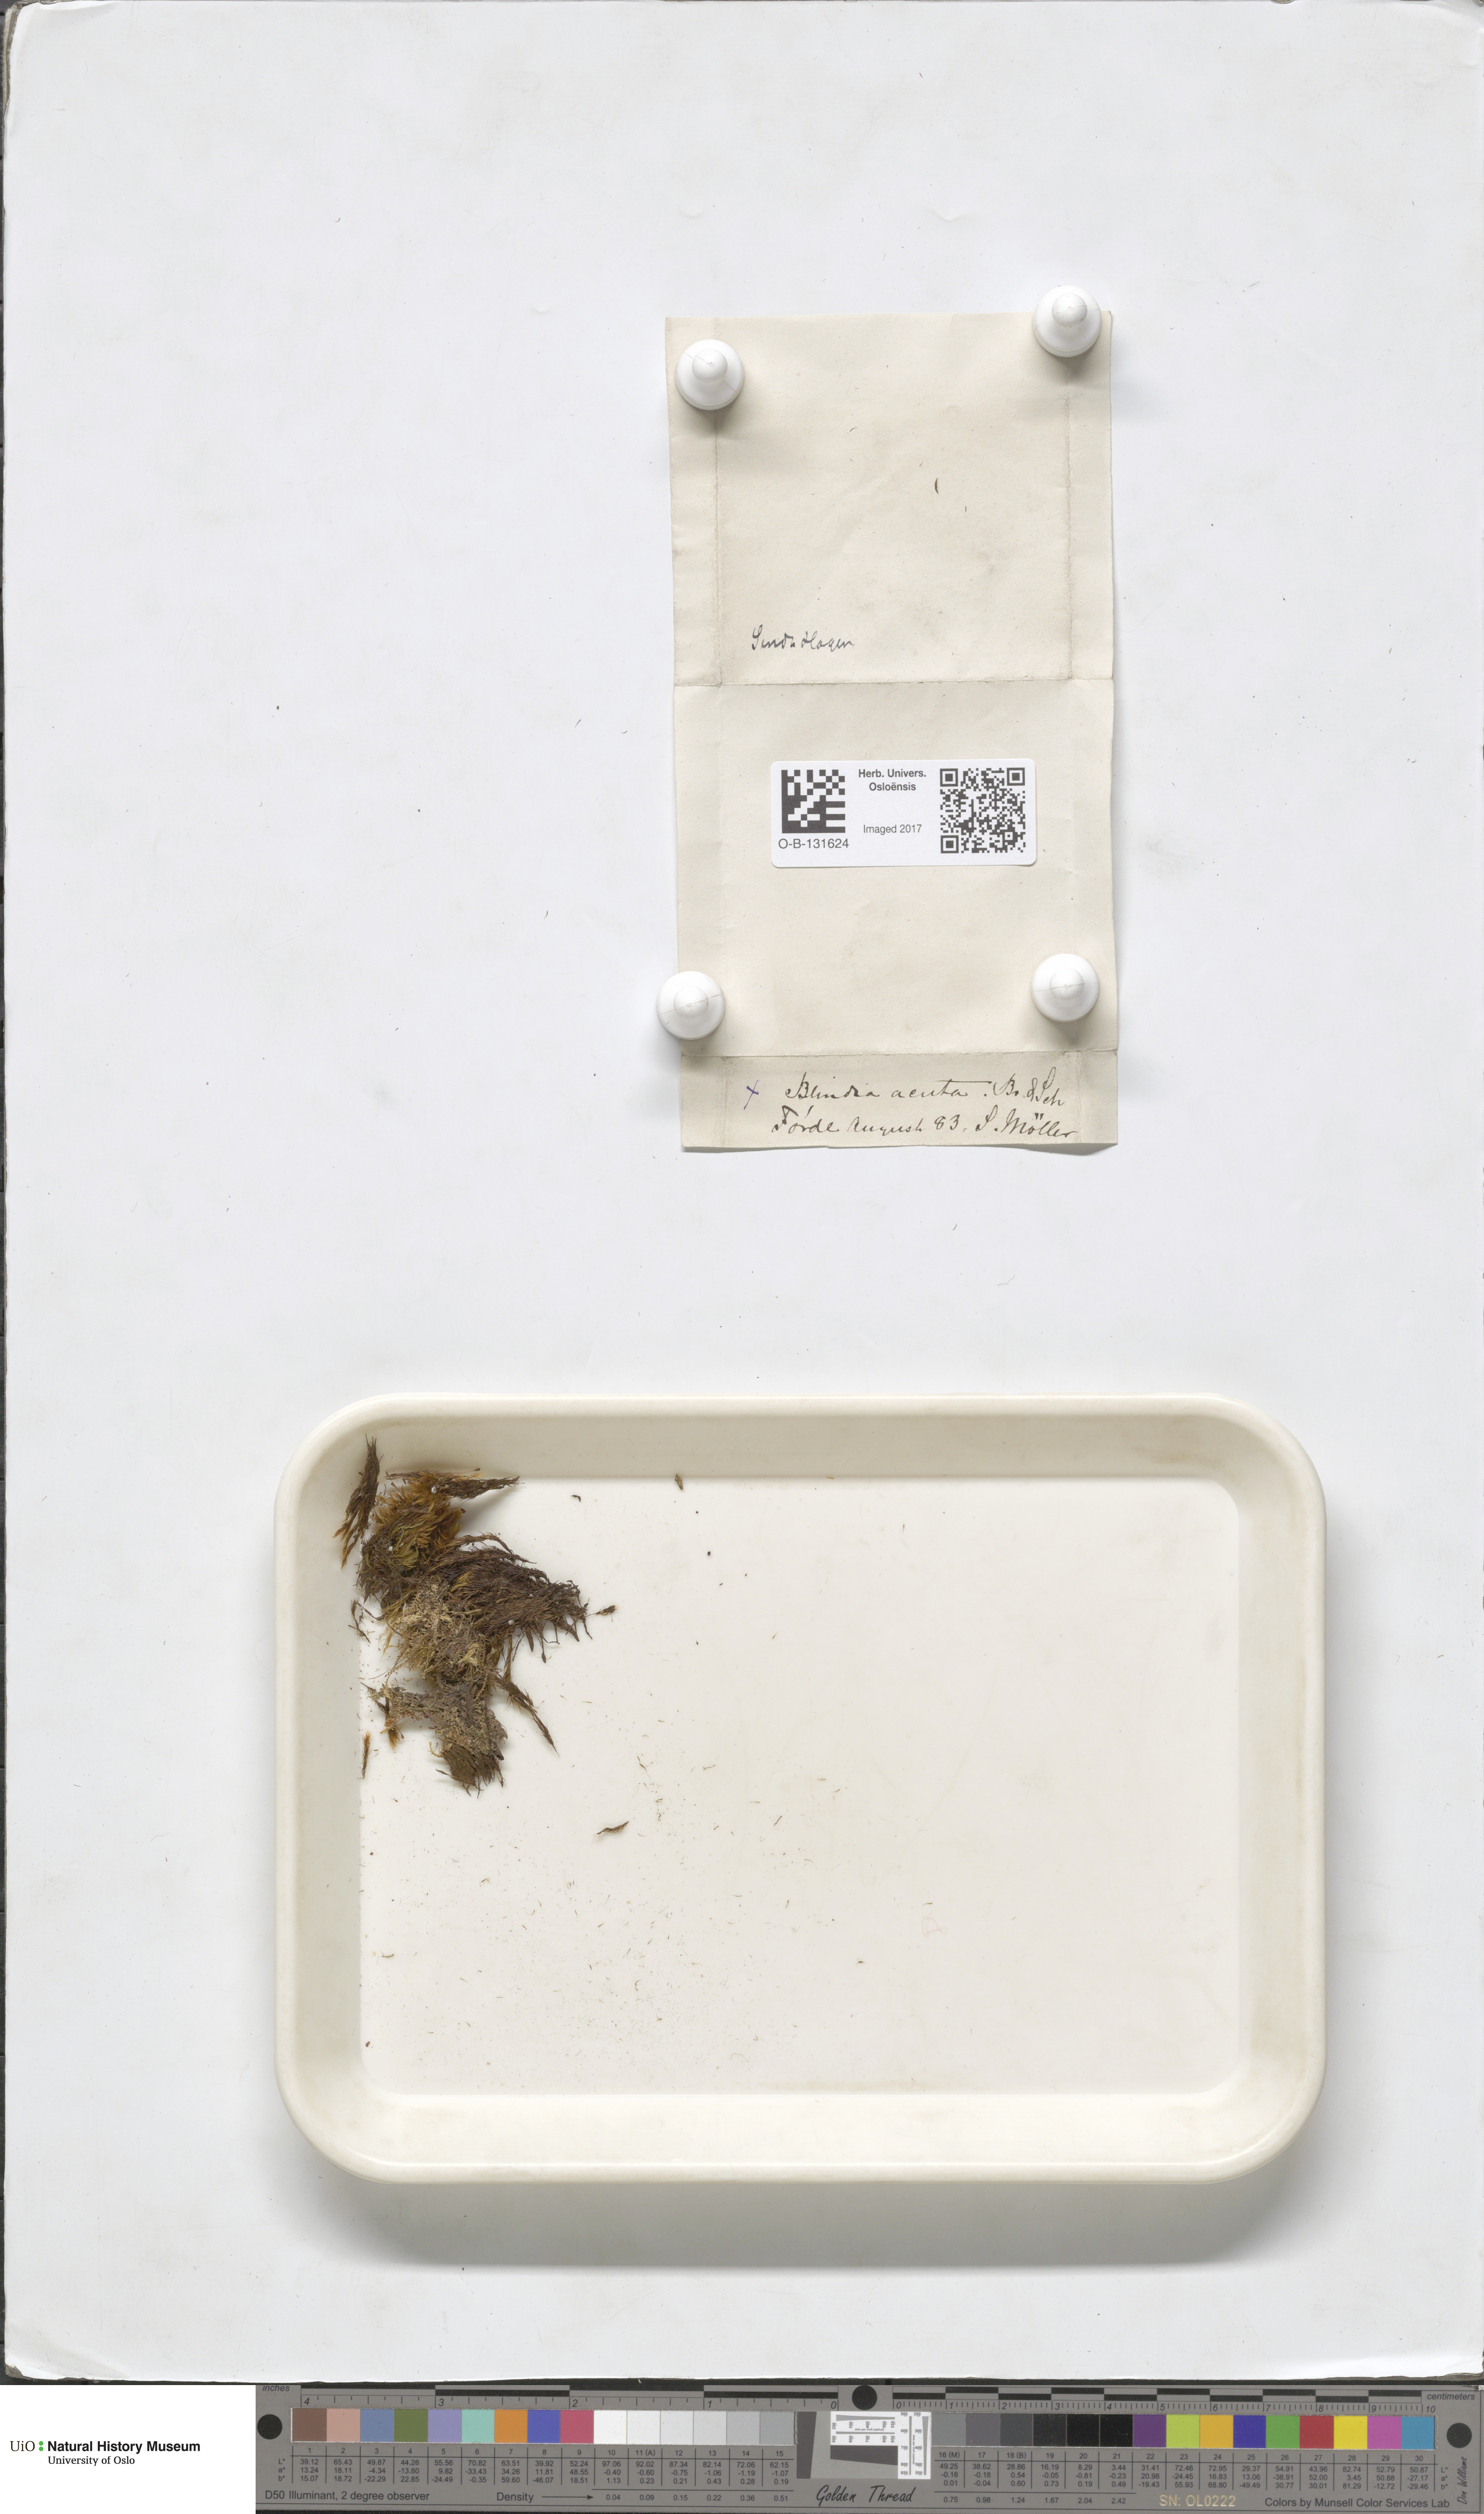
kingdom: Plantae
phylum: Bryophyta
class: Bryopsida
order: Grimmiales
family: Seligeriaceae
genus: Blindia
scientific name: Blindia acuta
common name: Sharp-leaved blind's moss
